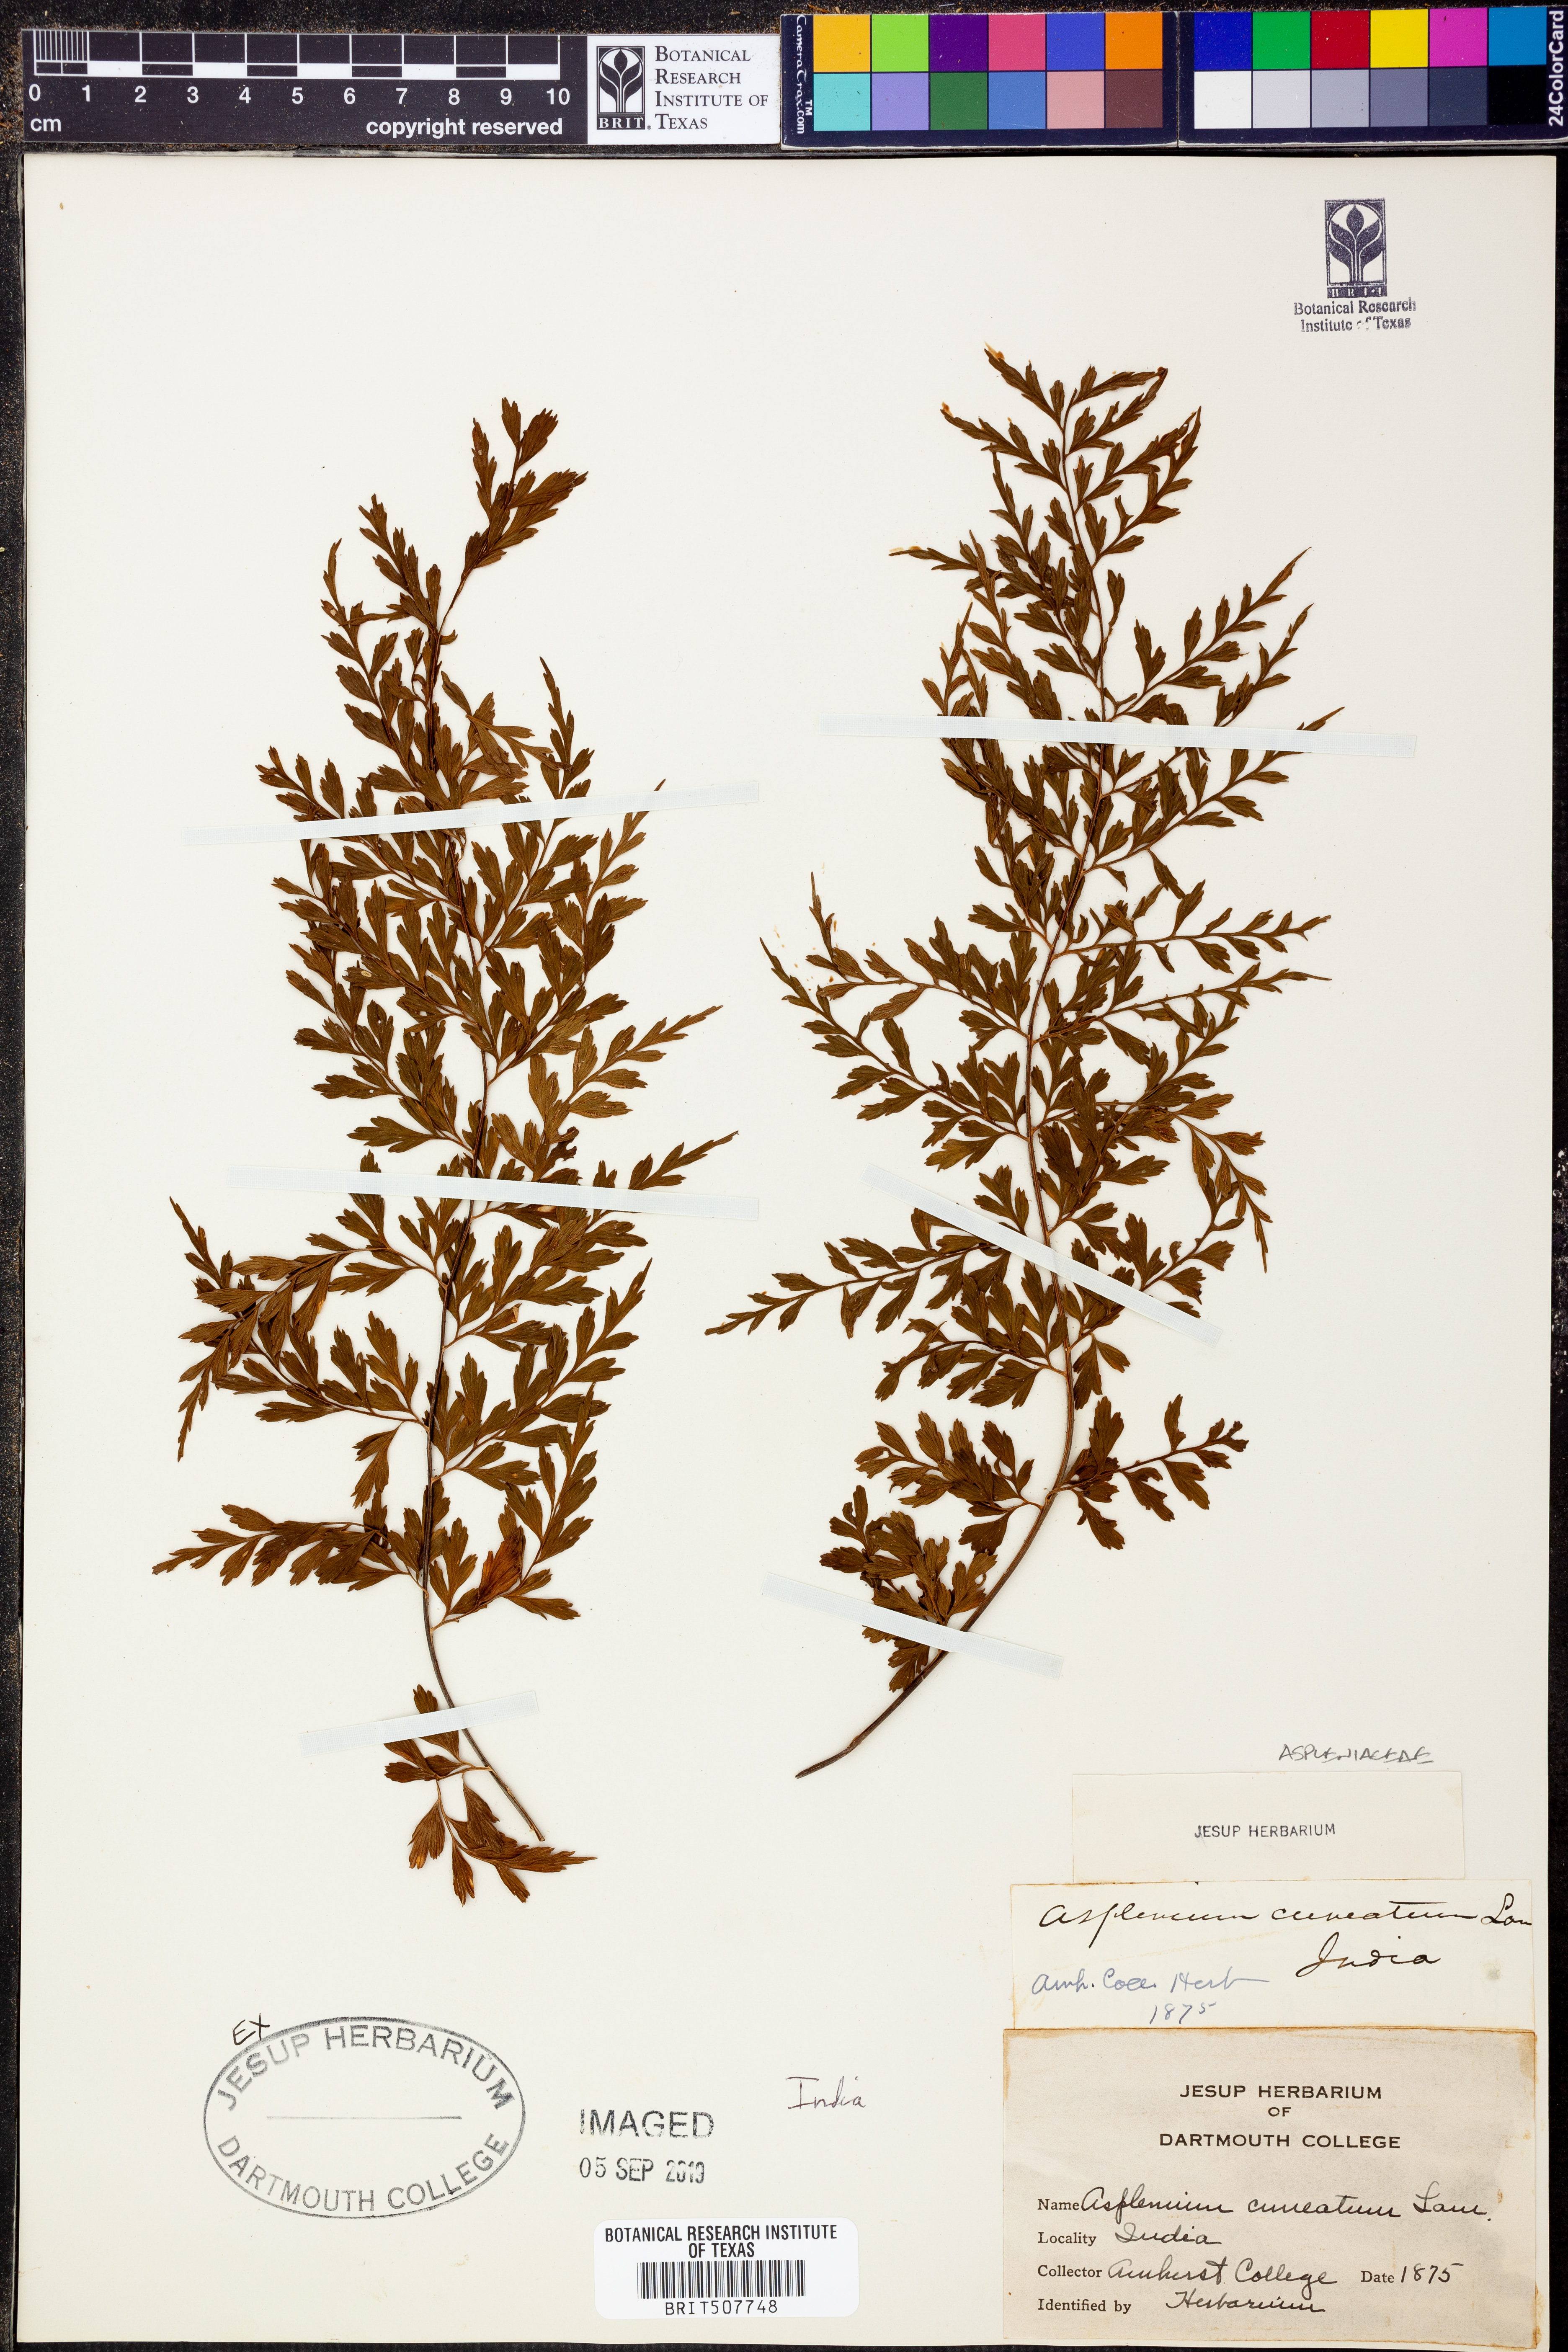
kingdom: Plantae
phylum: Tracheophyta
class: Polypodiopsida
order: Polypodiales
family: Aspleniaceae
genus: Asplenium
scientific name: Asplenium cuneatum
